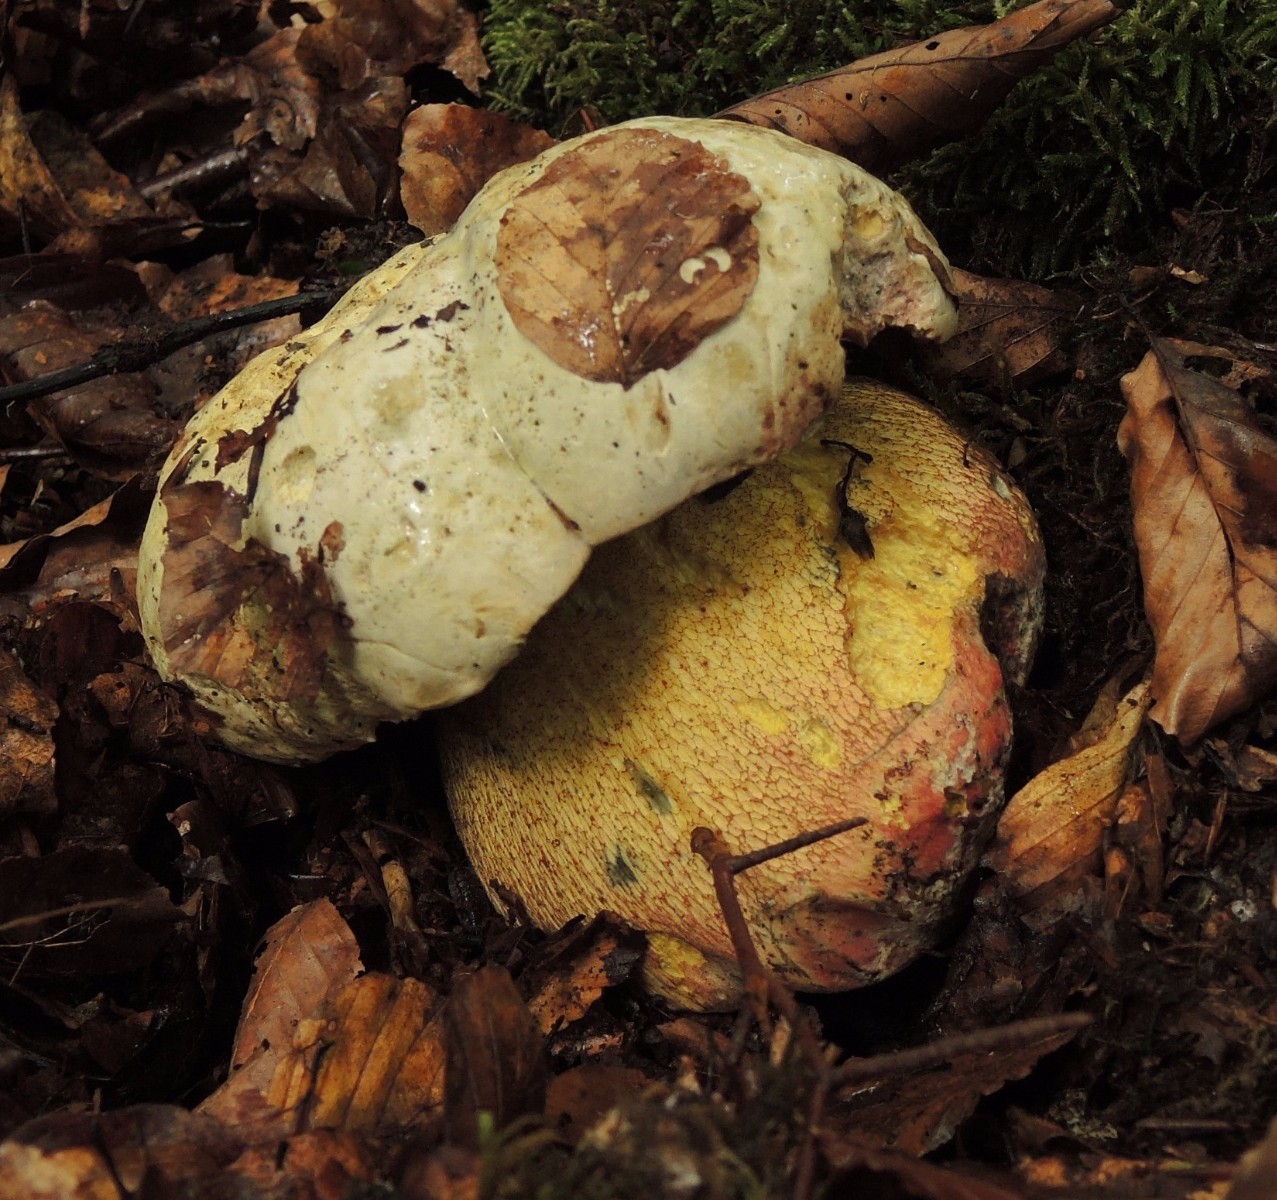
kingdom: Fungi
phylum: Basidiomycota
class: Agaricomycetes
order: Boletales
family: Boletaceae
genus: Rubroboletus
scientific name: Rubroboletus satanas
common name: Satans rørhat
